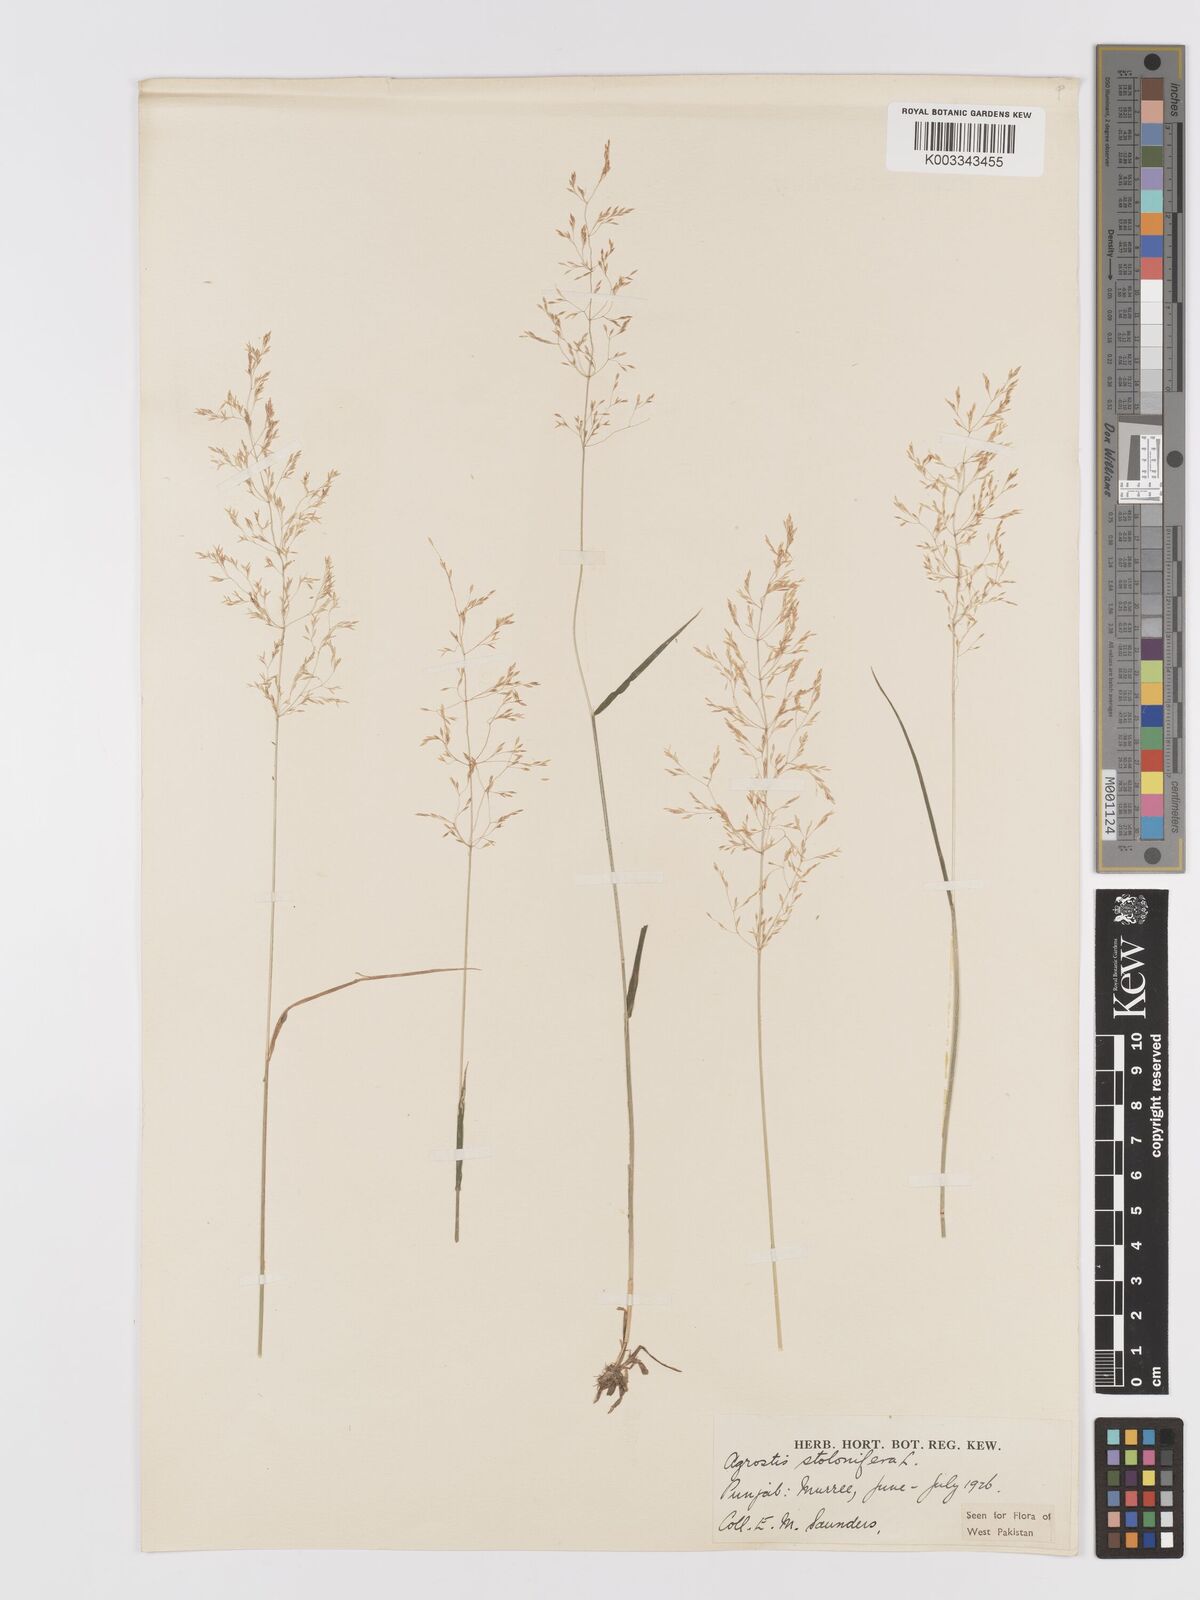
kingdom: Plantae
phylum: Tracheophyta
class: Liliopsida
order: Poales
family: Poaceae
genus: Agrostis
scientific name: Agrostis stolonifera
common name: Creeping bentgrass
